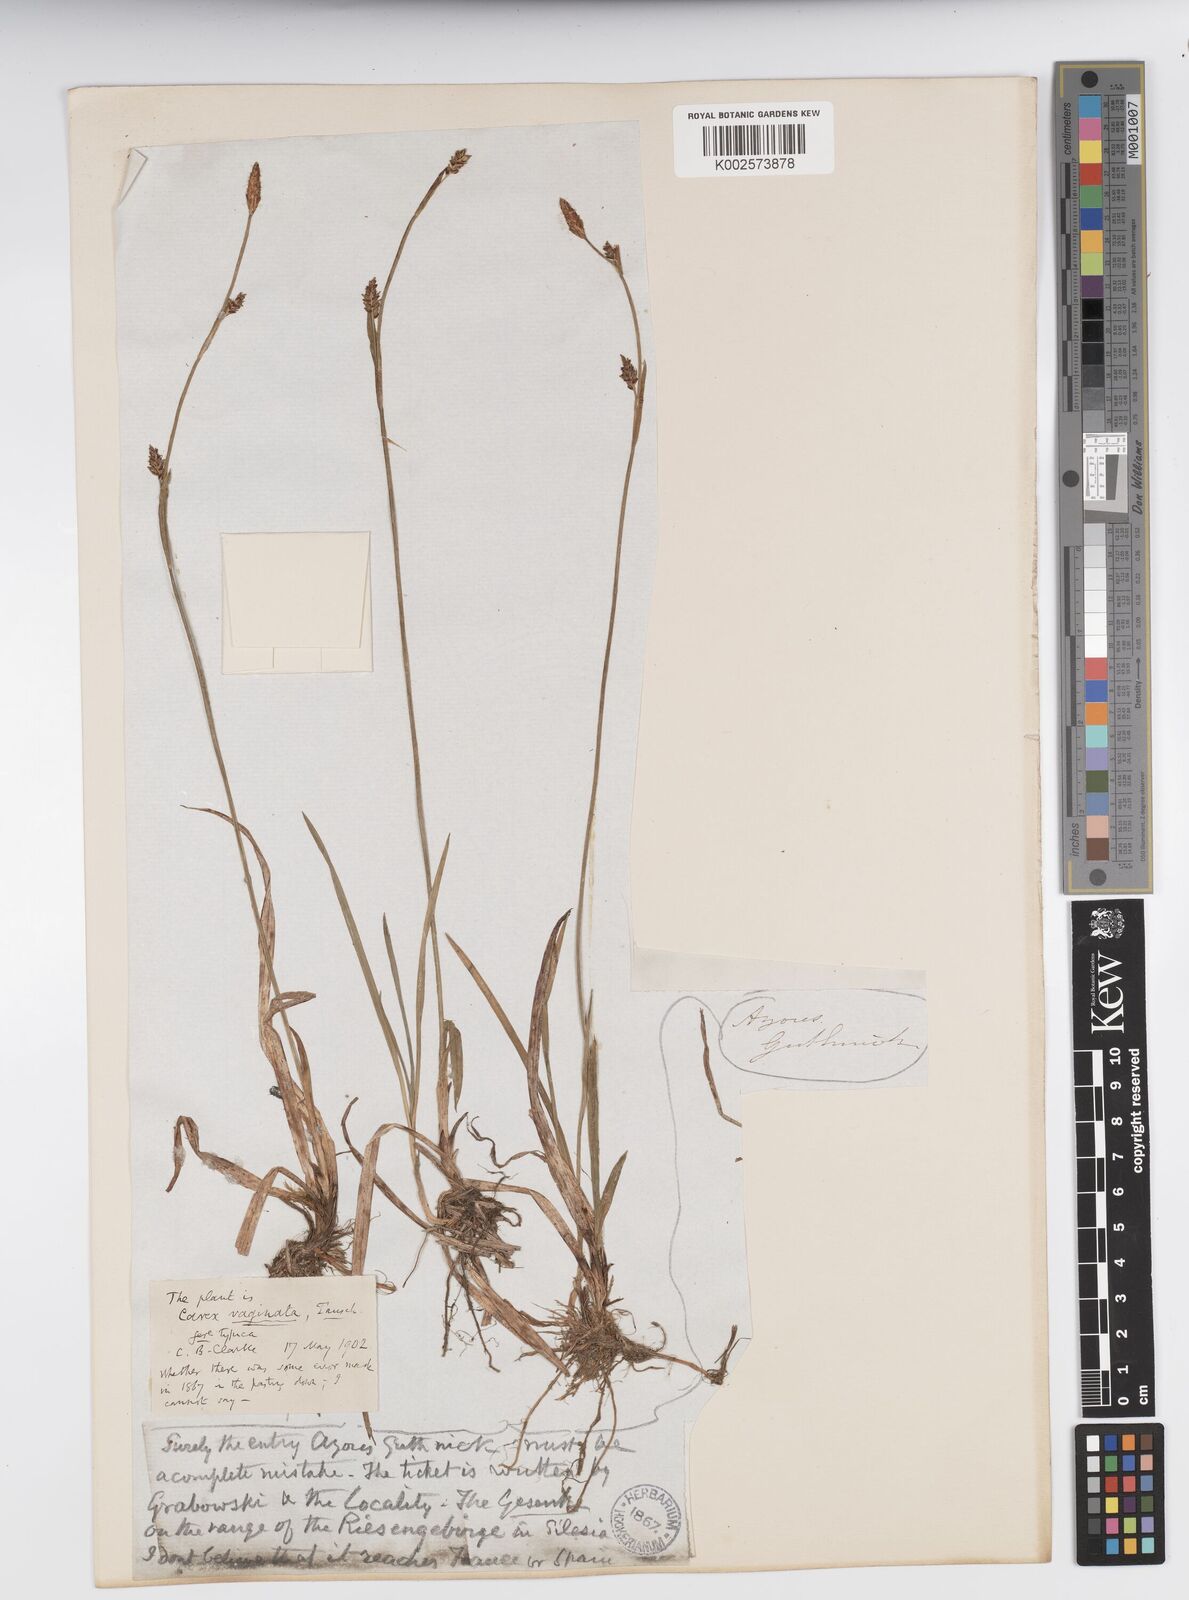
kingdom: Plantae
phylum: Tracheophyta
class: Liliopsida
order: Poales
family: Cyperaceae
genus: Carex
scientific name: Carex vaginata
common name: Sheathed sedge
